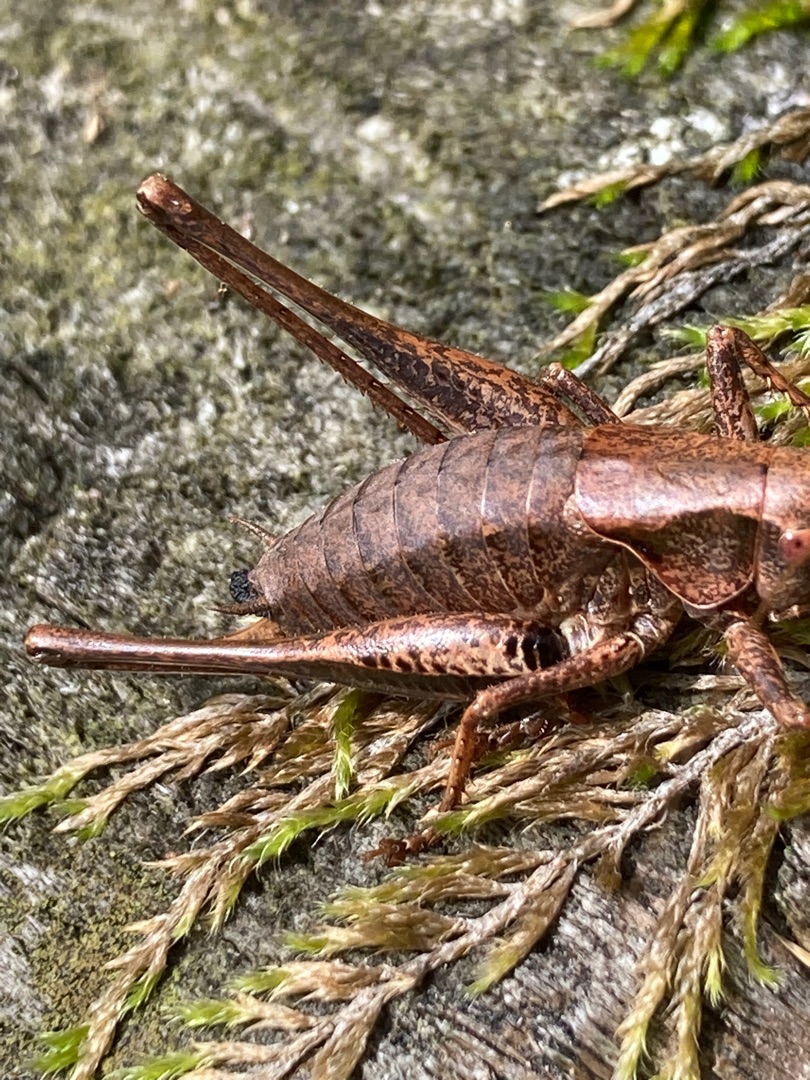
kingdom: Animalia
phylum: Arthropoda
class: Insecta
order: Orthoptera
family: Tettigoniidae
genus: Pholidoptera
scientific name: Pholidoptera griseoaptera
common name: Buskgræshoppe
